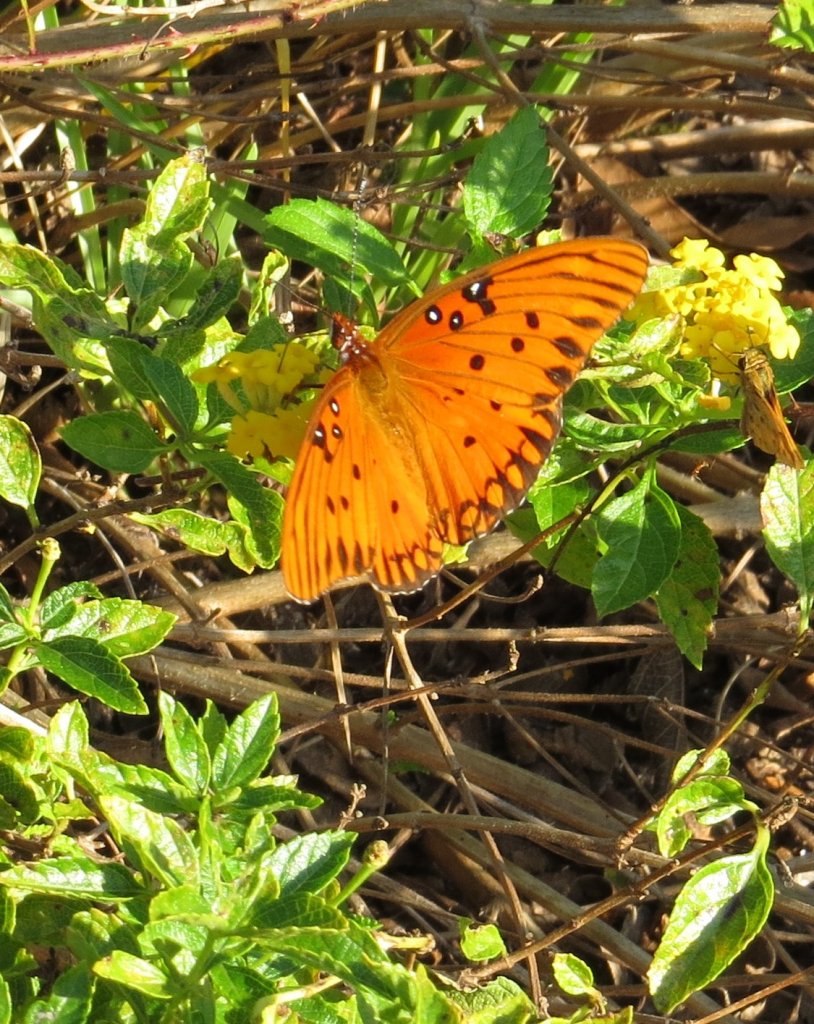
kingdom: Animalia
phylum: Arthropoda
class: Insecta
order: Lepidoptera
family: Nymphalidae
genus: Dione
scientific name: Dione vanillae
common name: Gulf Fritillary
